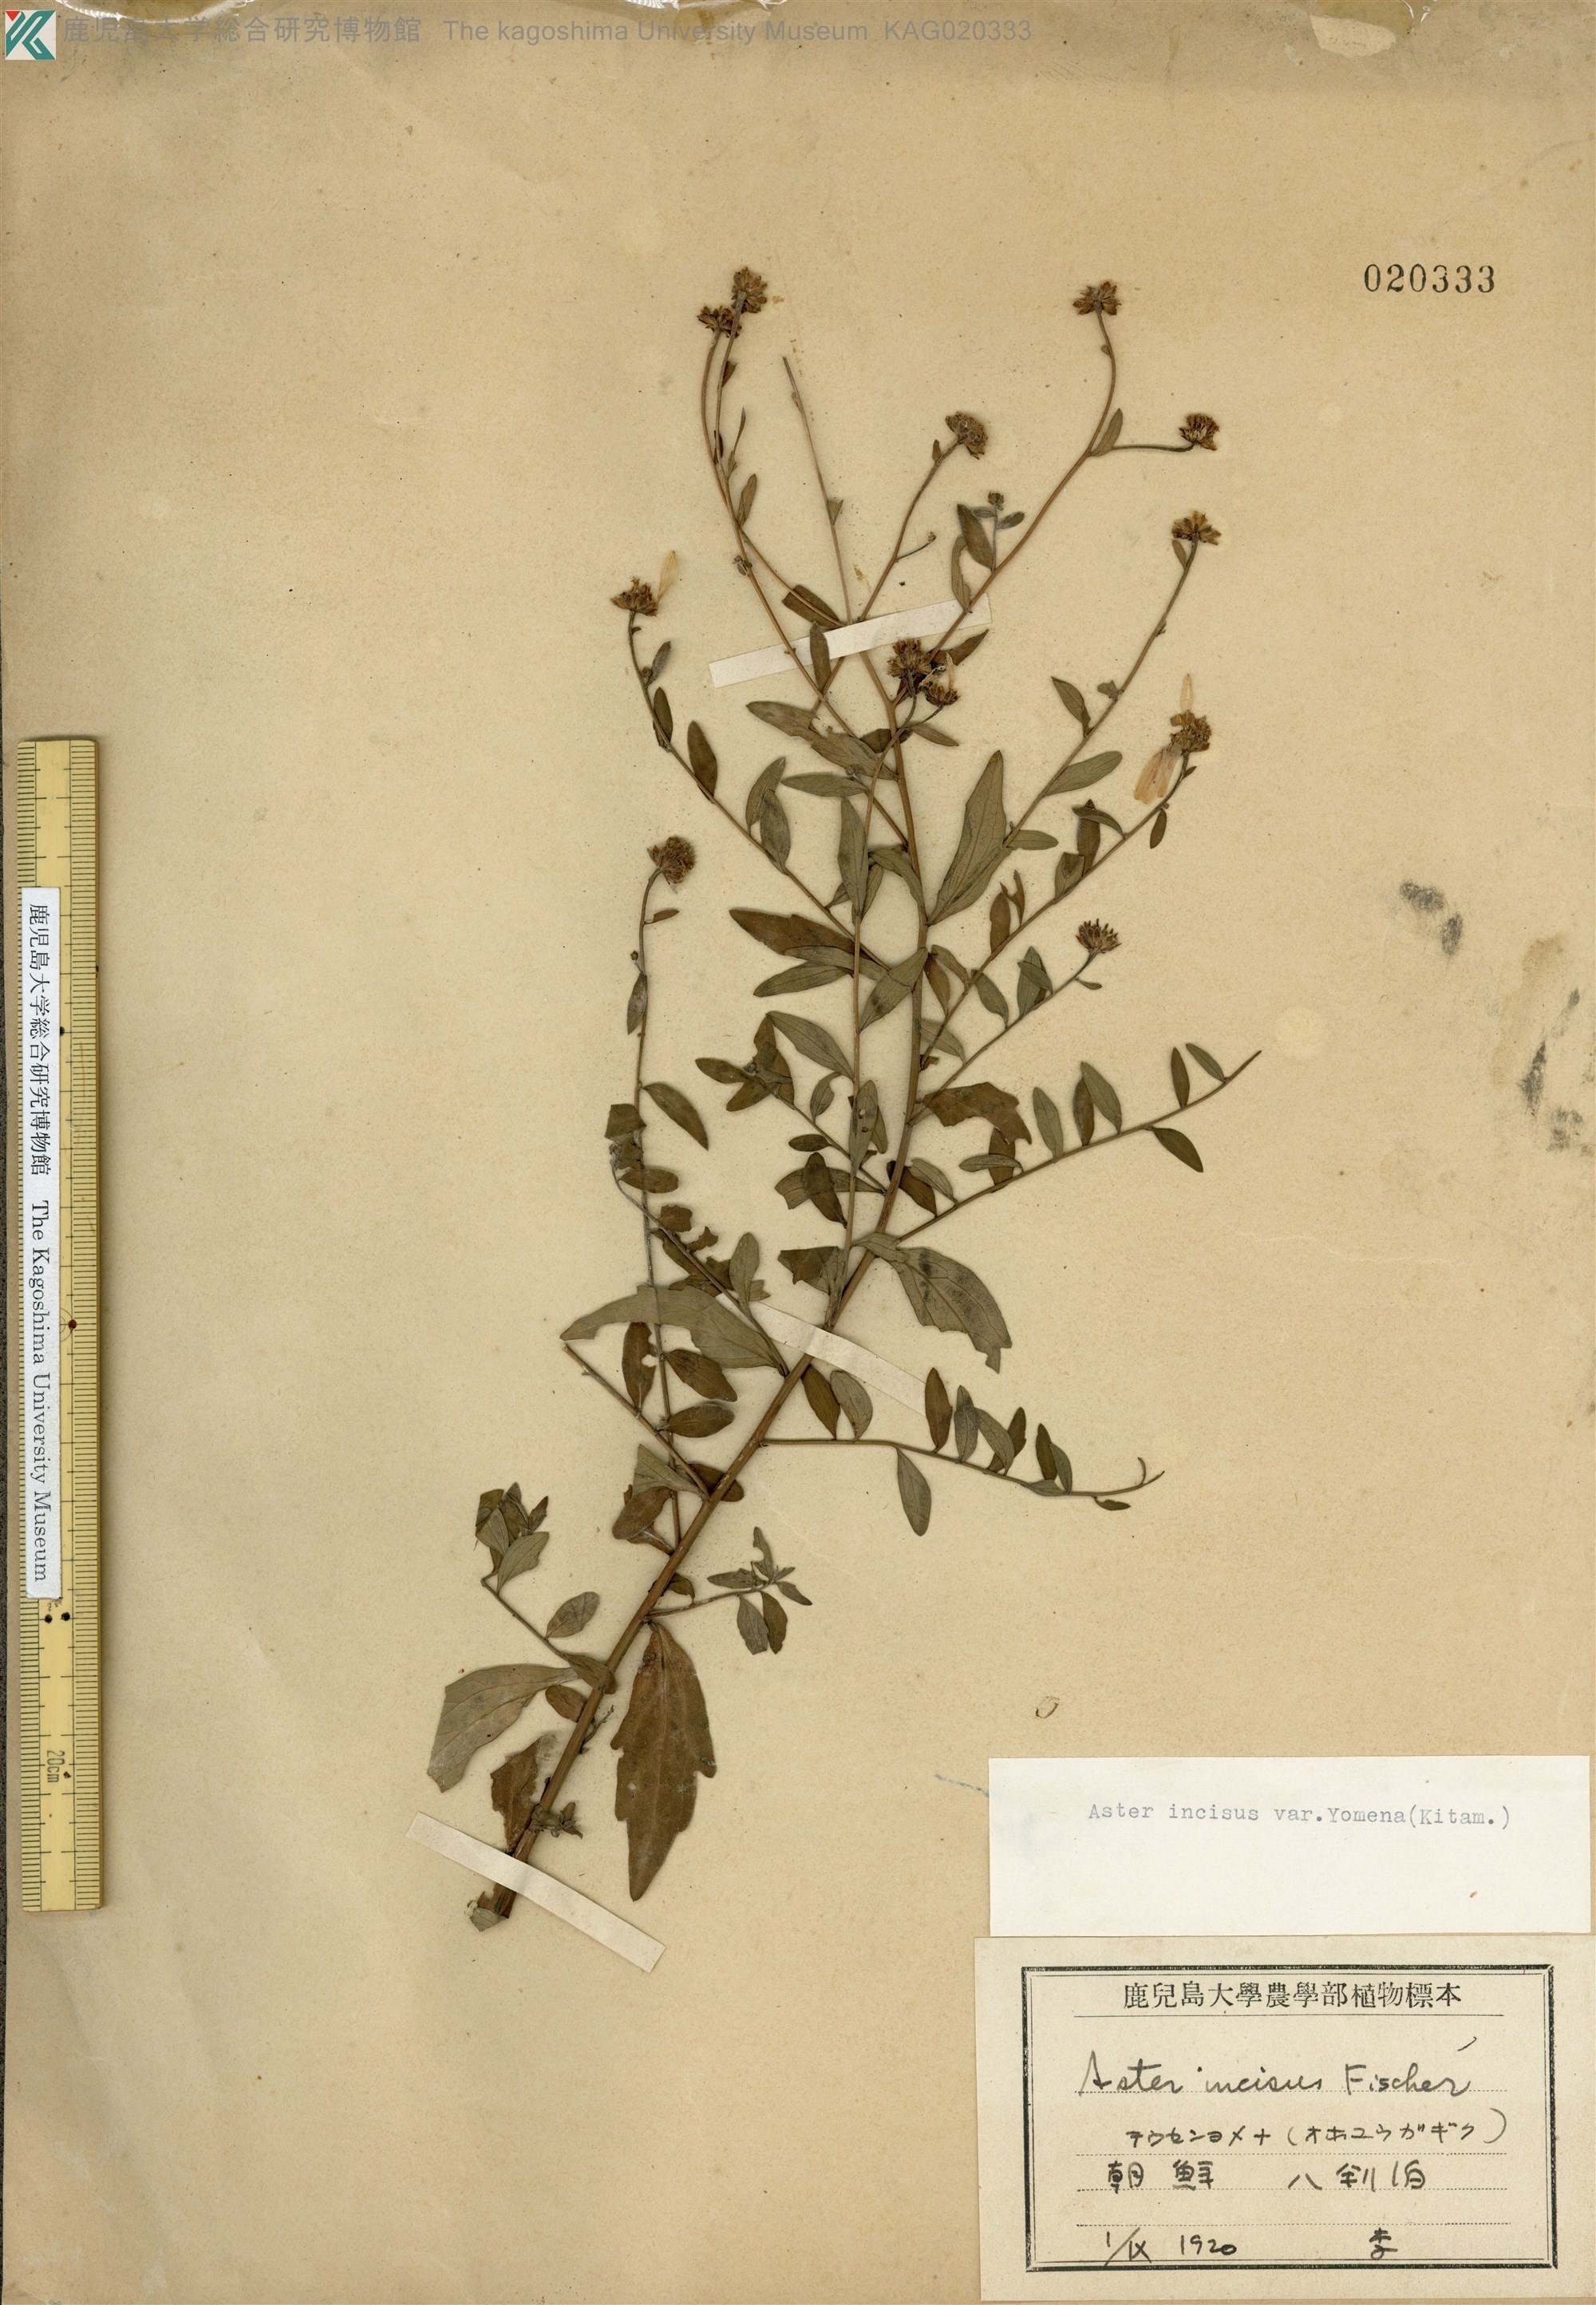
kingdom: Plantae
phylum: Tracheophyta
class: Magnoliopsida
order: Asterales
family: Asteraceae
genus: Kalimeris
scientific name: Kalimeris yomena
